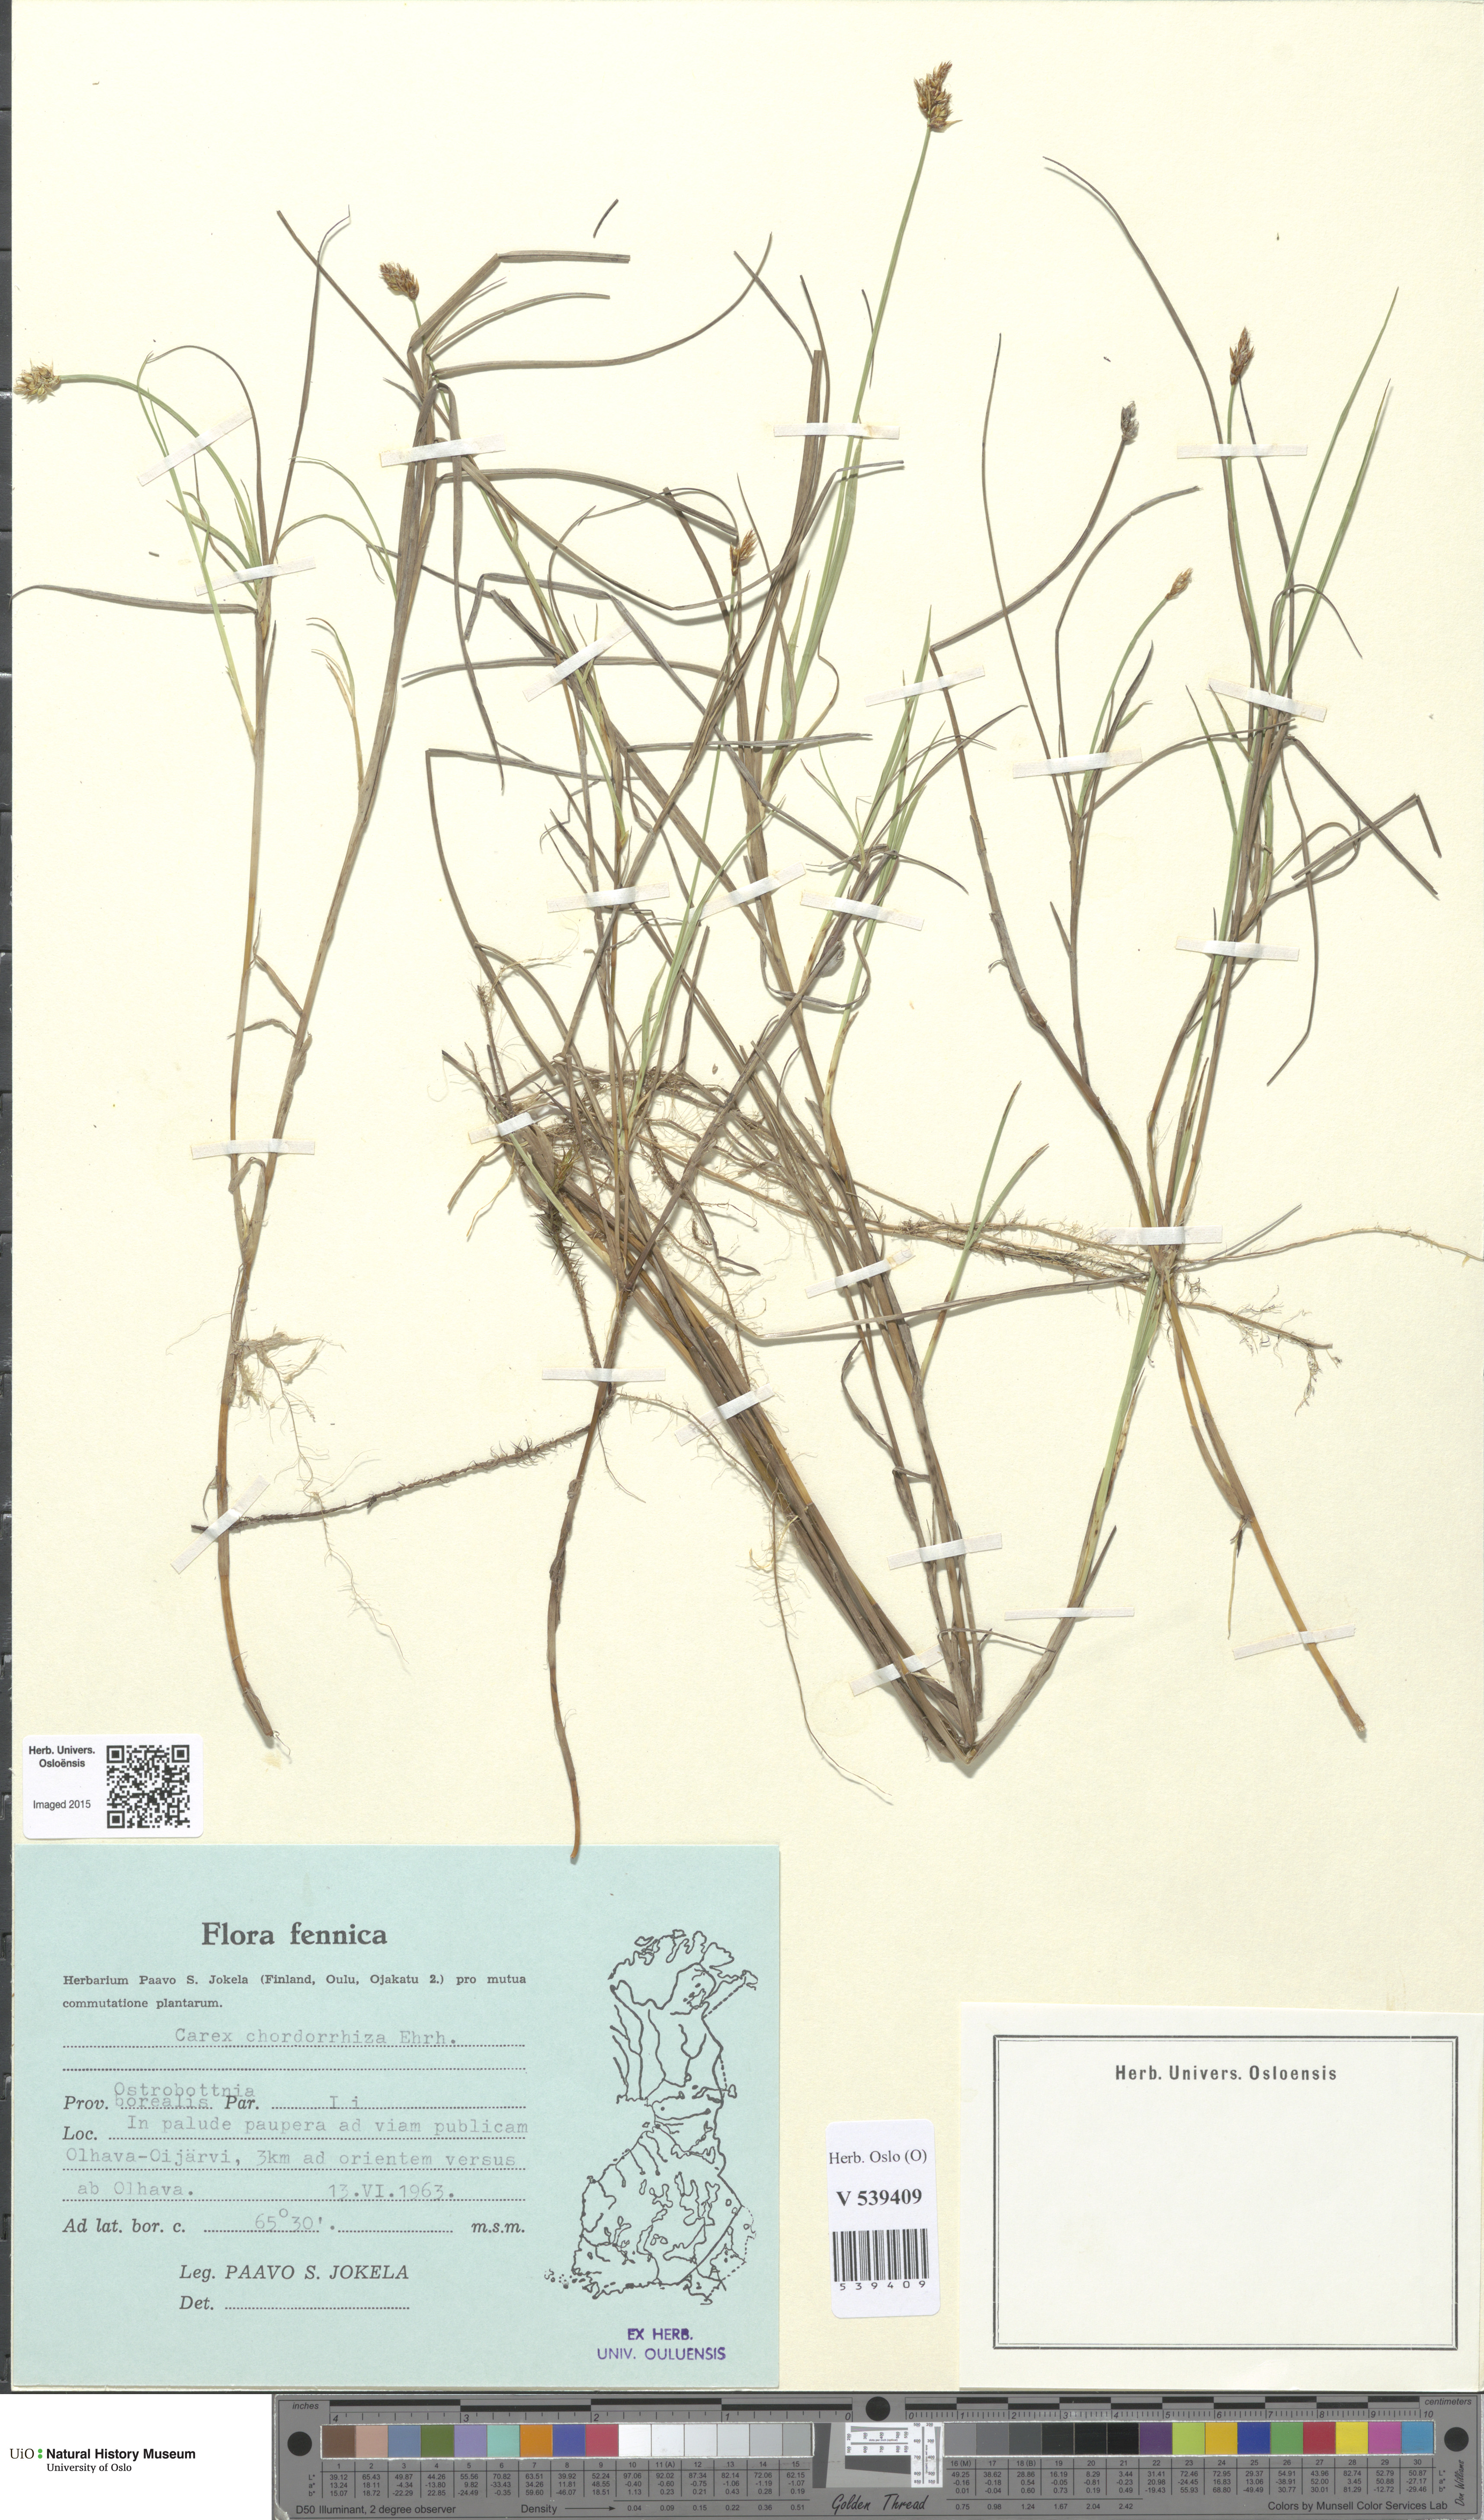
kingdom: Plantae
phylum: Tracheophyta
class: Liliopsida
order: Poales
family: Cyperaceae
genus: Carex
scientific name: Carex chordorrhiza
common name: String sedge
